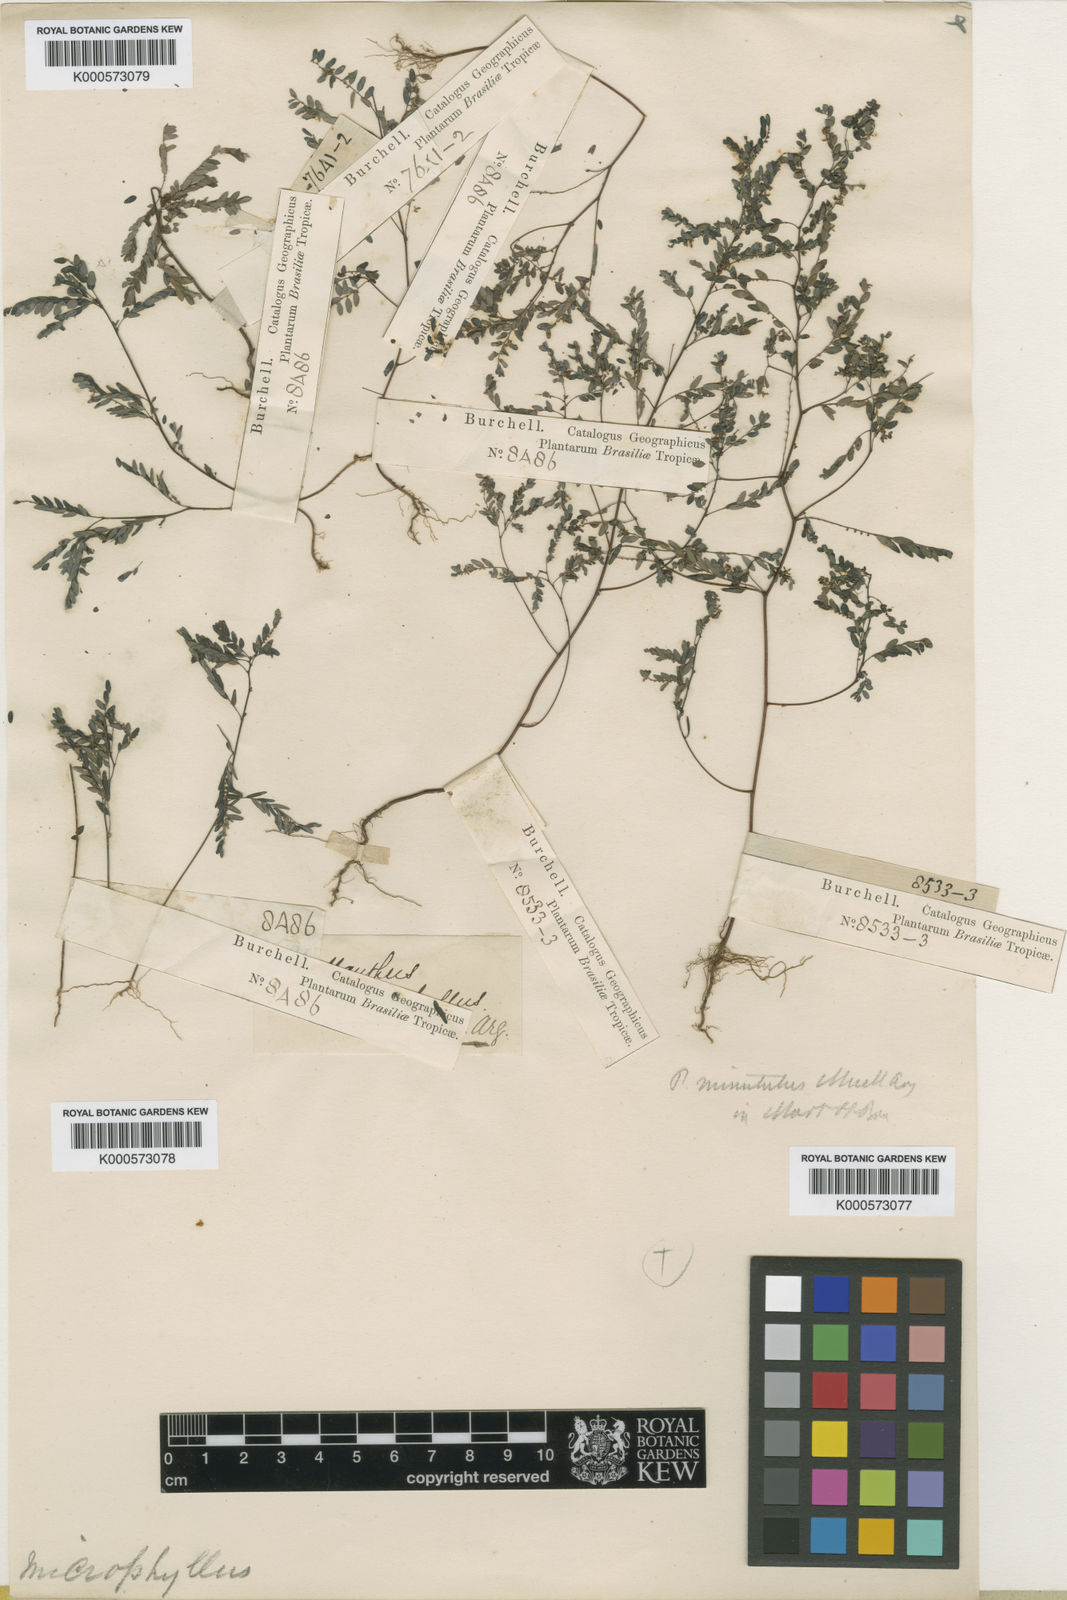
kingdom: Plantae
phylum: Tracheophyta
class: Magnoliopsida
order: Malpighiales
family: Phyllanthaceae
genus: Phyllanthus
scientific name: Phyllanthus
